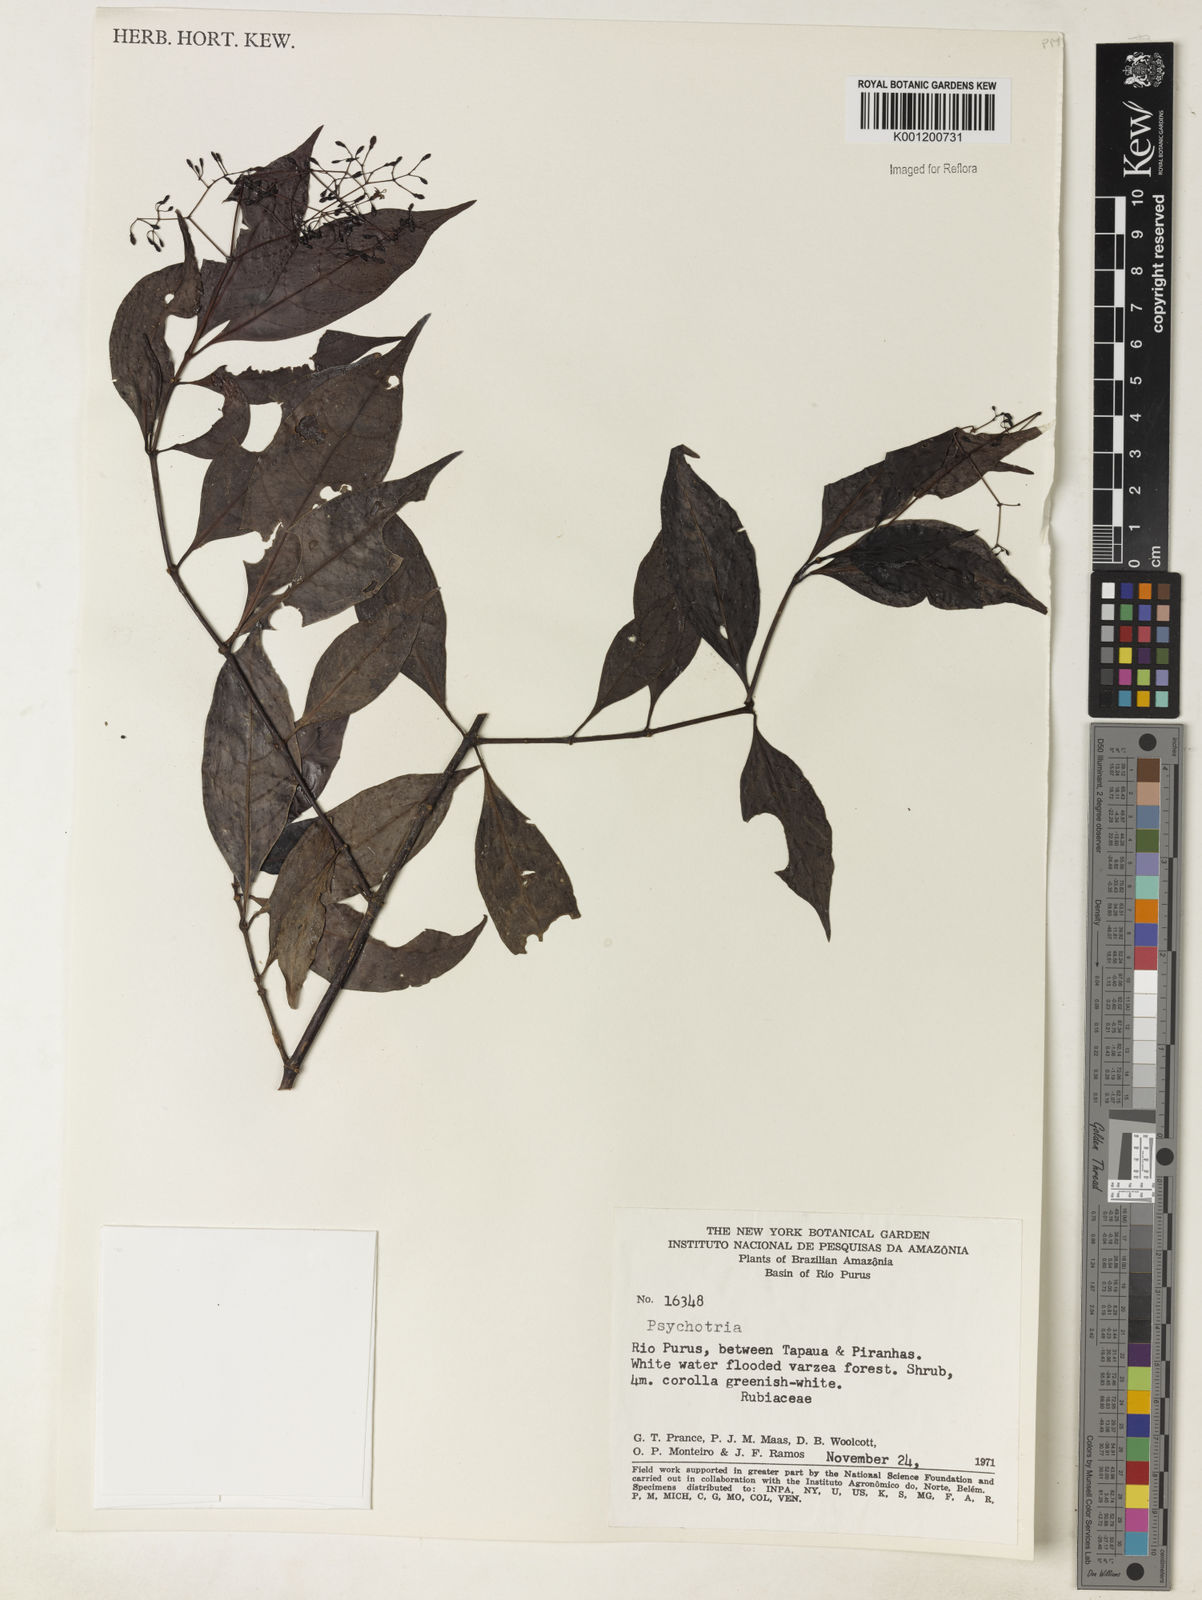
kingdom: Plantae
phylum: Tracheophyta
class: Magnoliopsida
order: Gentianales
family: Rubiaceae
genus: Psychotria
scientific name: Psychotria
